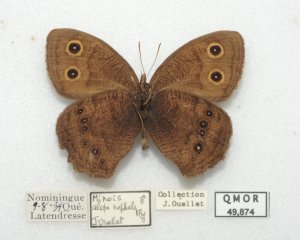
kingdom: Animalia
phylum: Arthropoda
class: Insecta
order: Lepidoptera
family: Nymphalidae
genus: Cercyonis
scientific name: Cercyonis pegala
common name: Common Wood-Nymph
